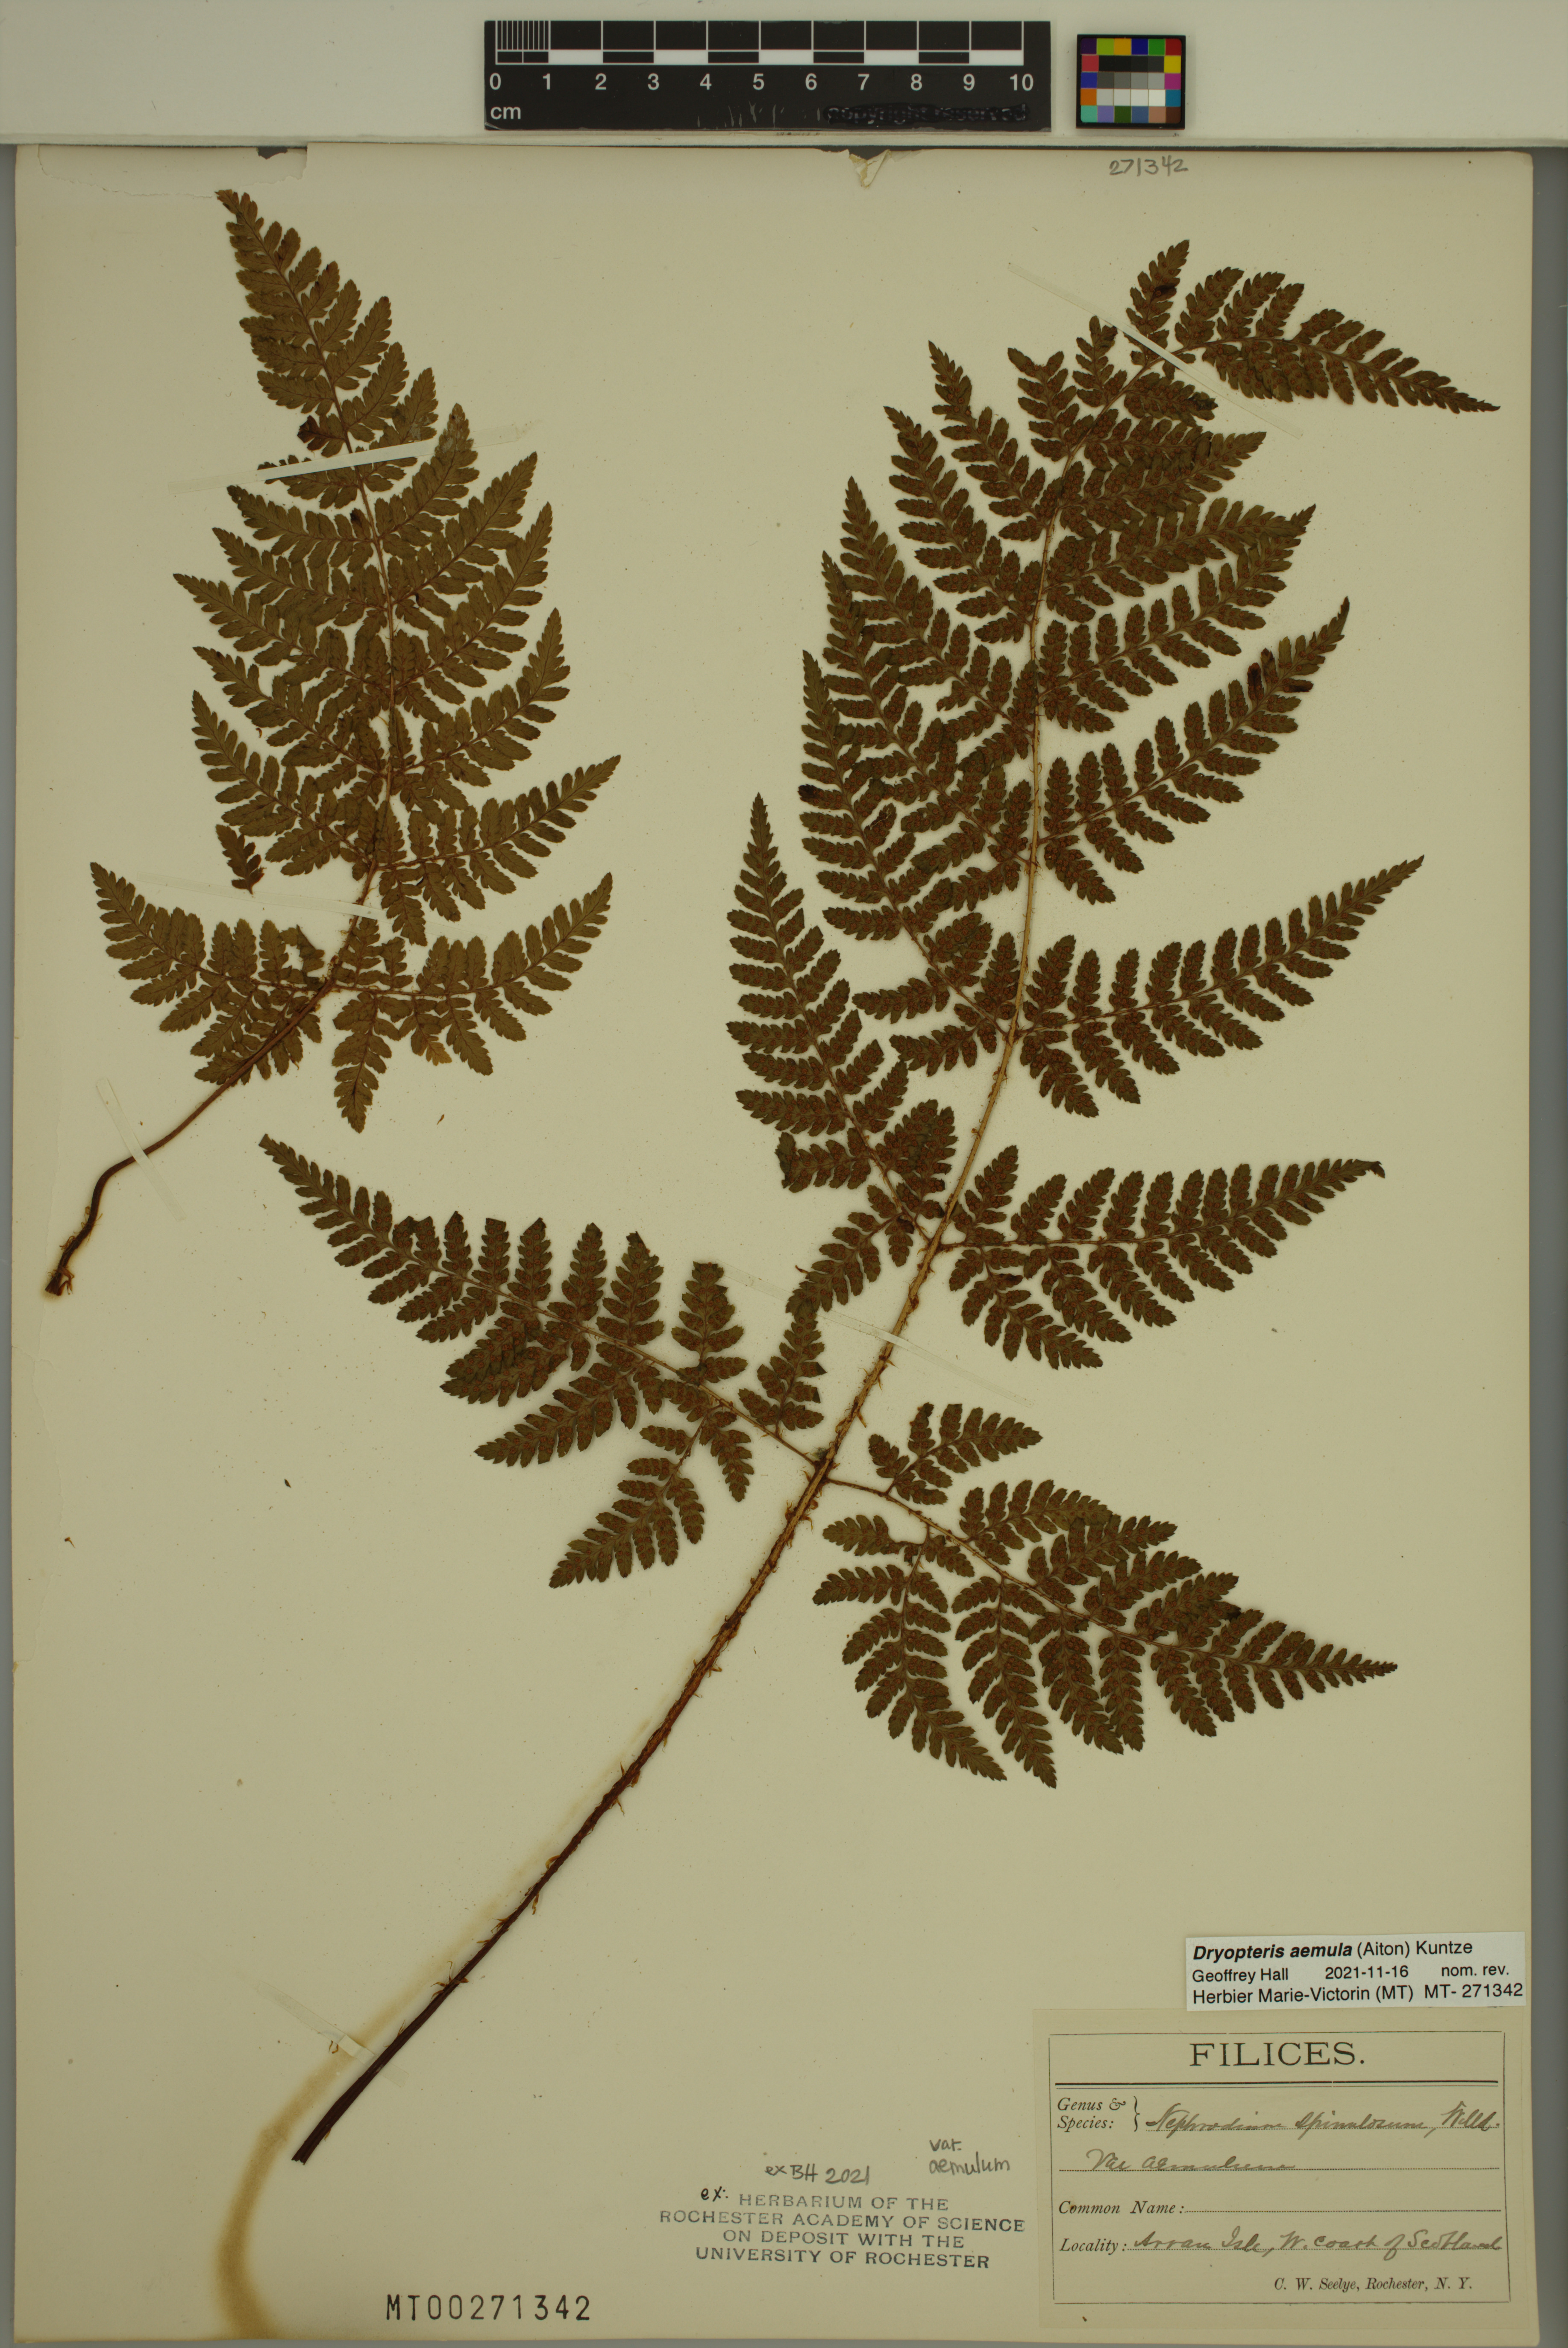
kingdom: Plantae
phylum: Tracheophyta
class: Polypodiopsida
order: Polypodiales
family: Dryopteridaceae
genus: Dryopteris
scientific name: Dryopteris aemula
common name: Hay-scented buckler-fern
